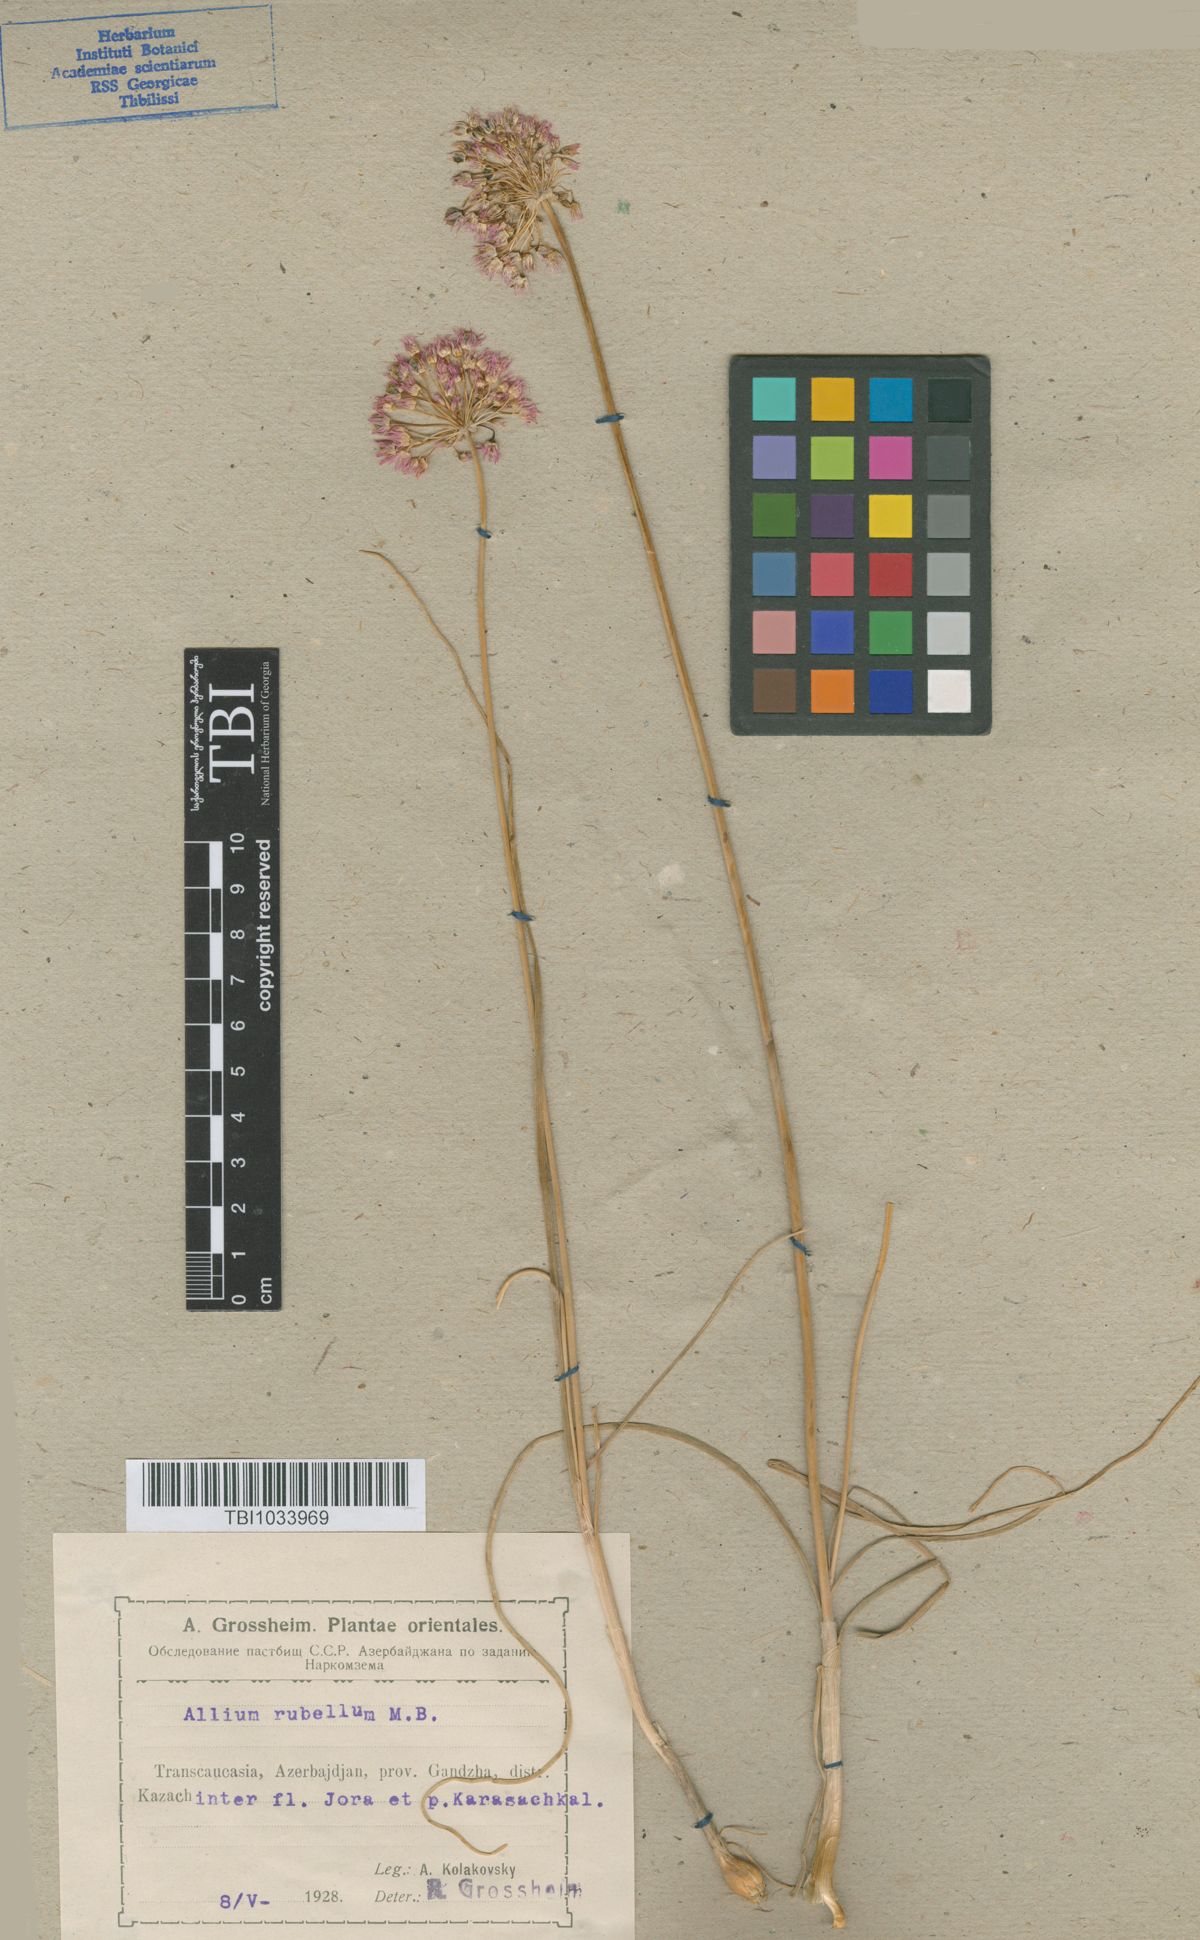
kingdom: Plantae
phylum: Tracheophyta
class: Liliopsida
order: Asparagales
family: Amaryllidaceae
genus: Allium
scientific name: Allium rubellum
